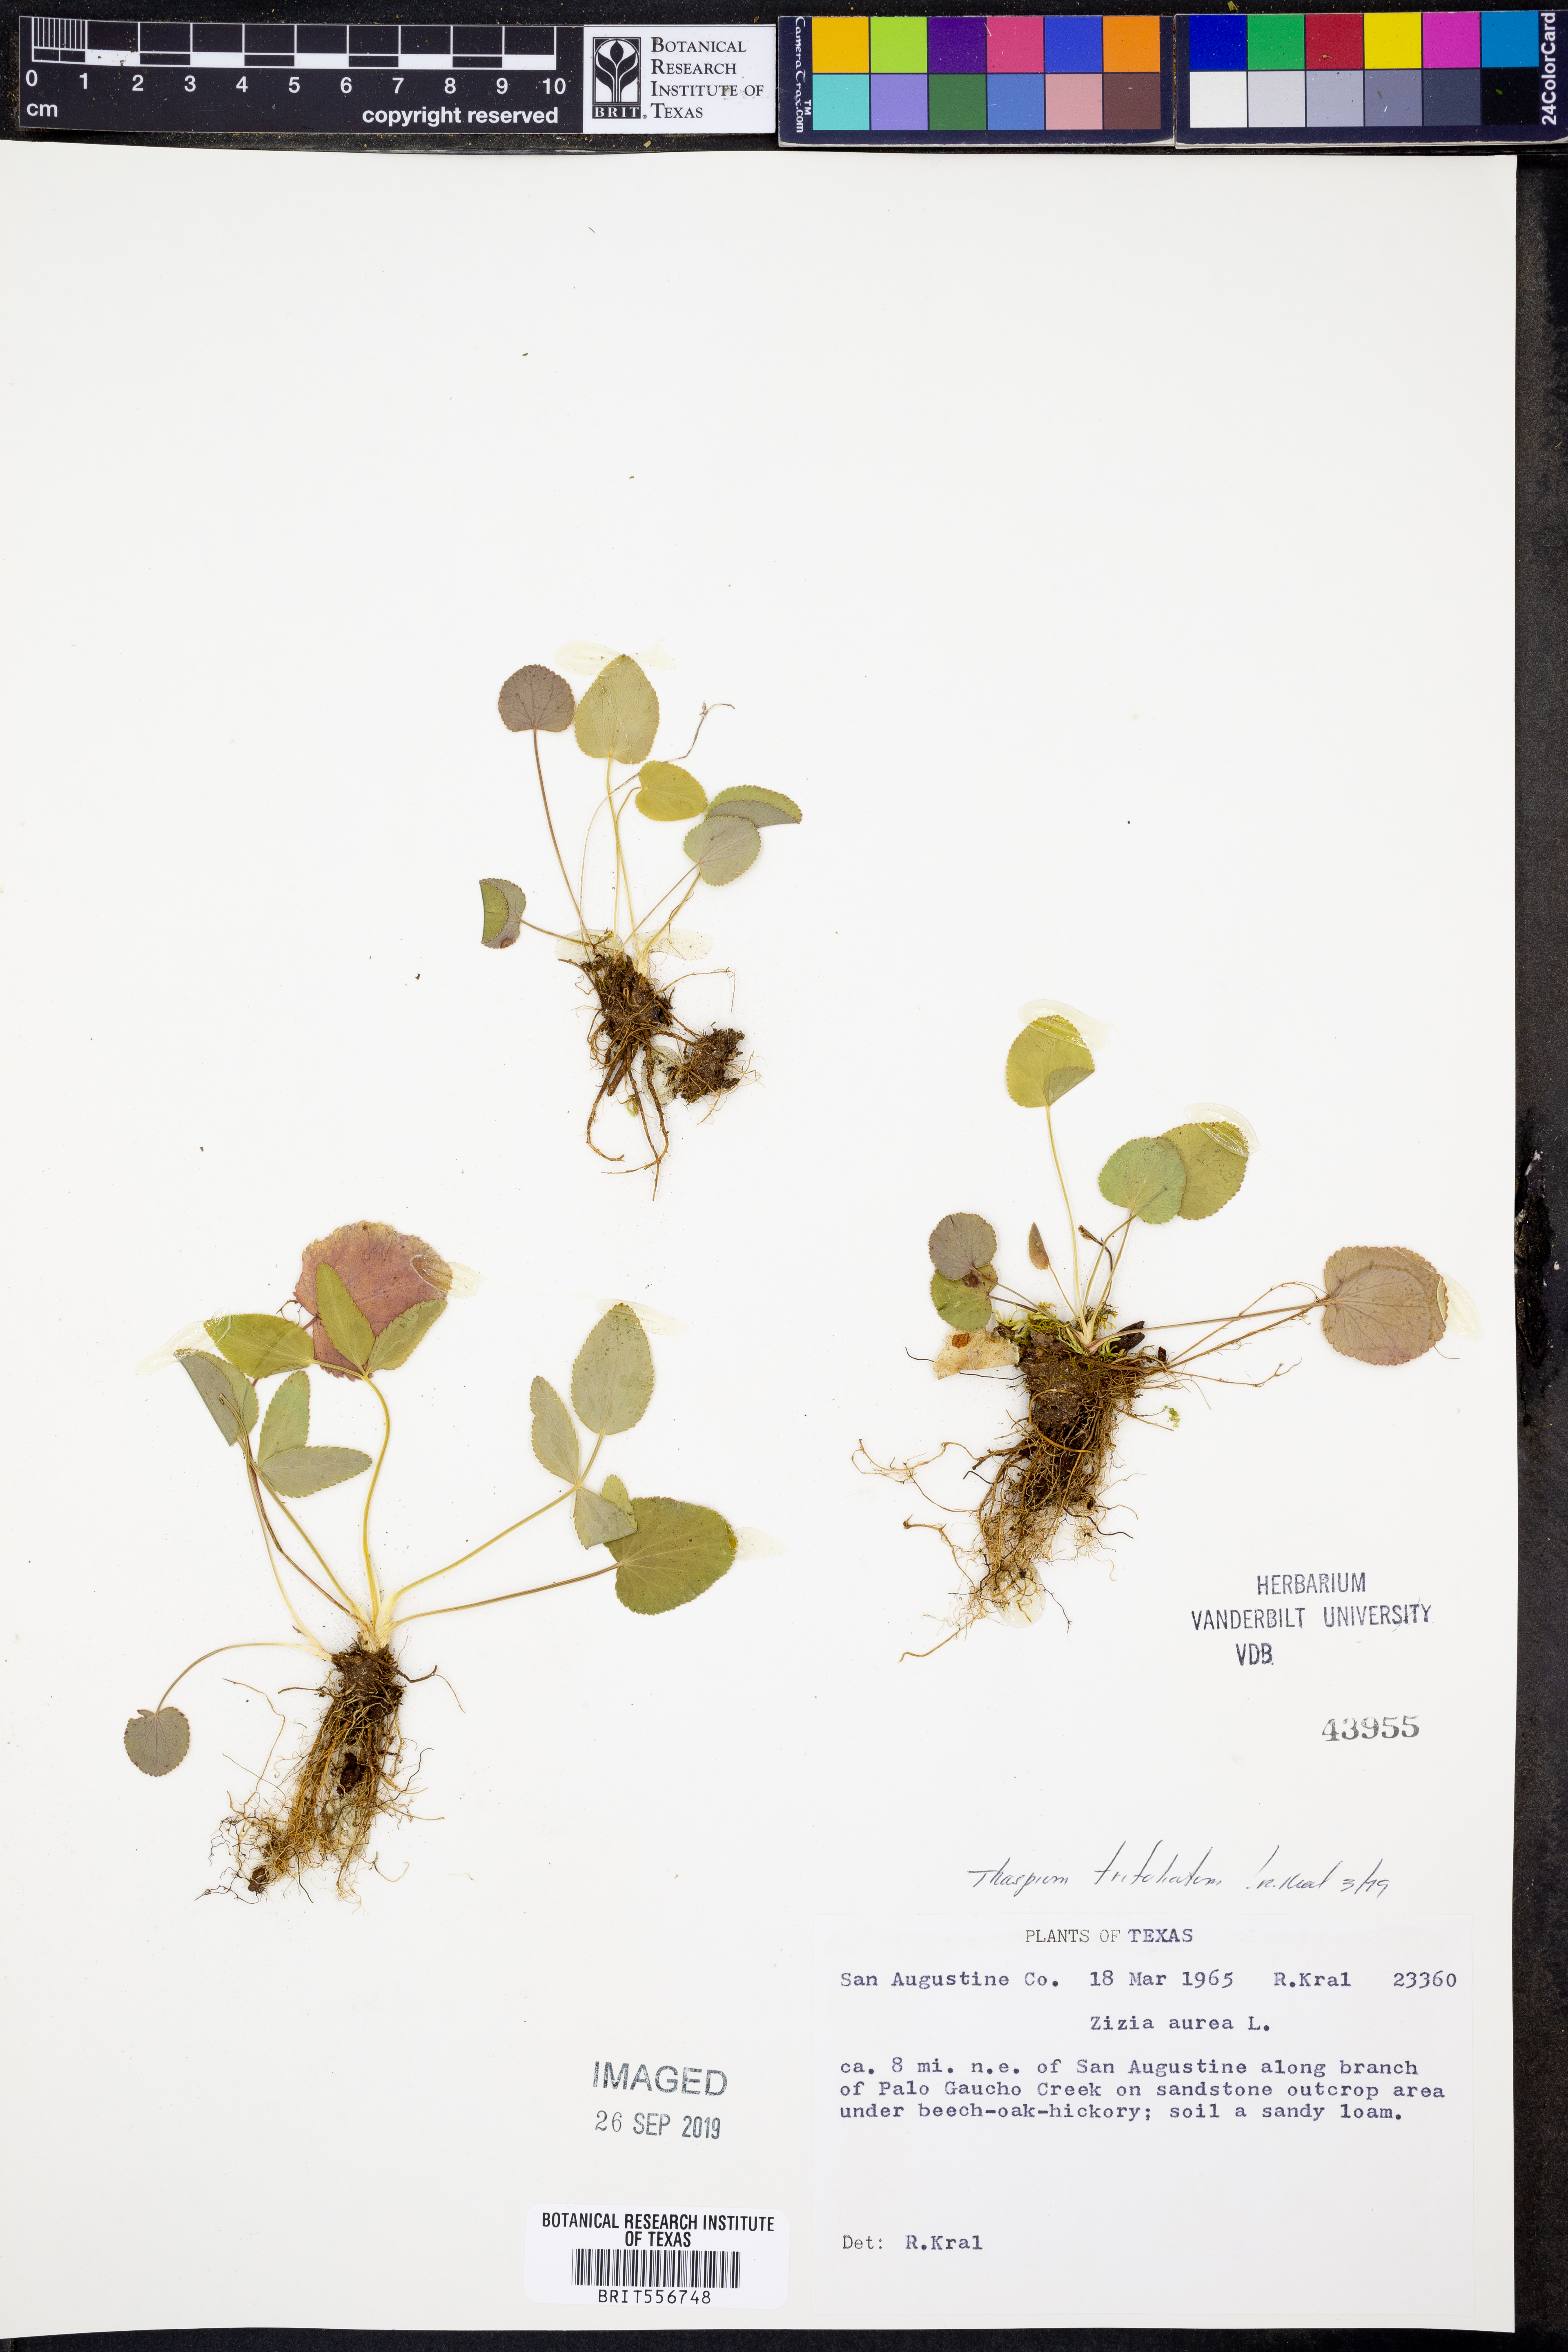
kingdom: Plantae
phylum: Tracheophyta
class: Magnoliopsida
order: Apiales
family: Apiaceae
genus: Thaspium
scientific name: Thaspium trifoliatum
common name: Purple meadow-parsnip
